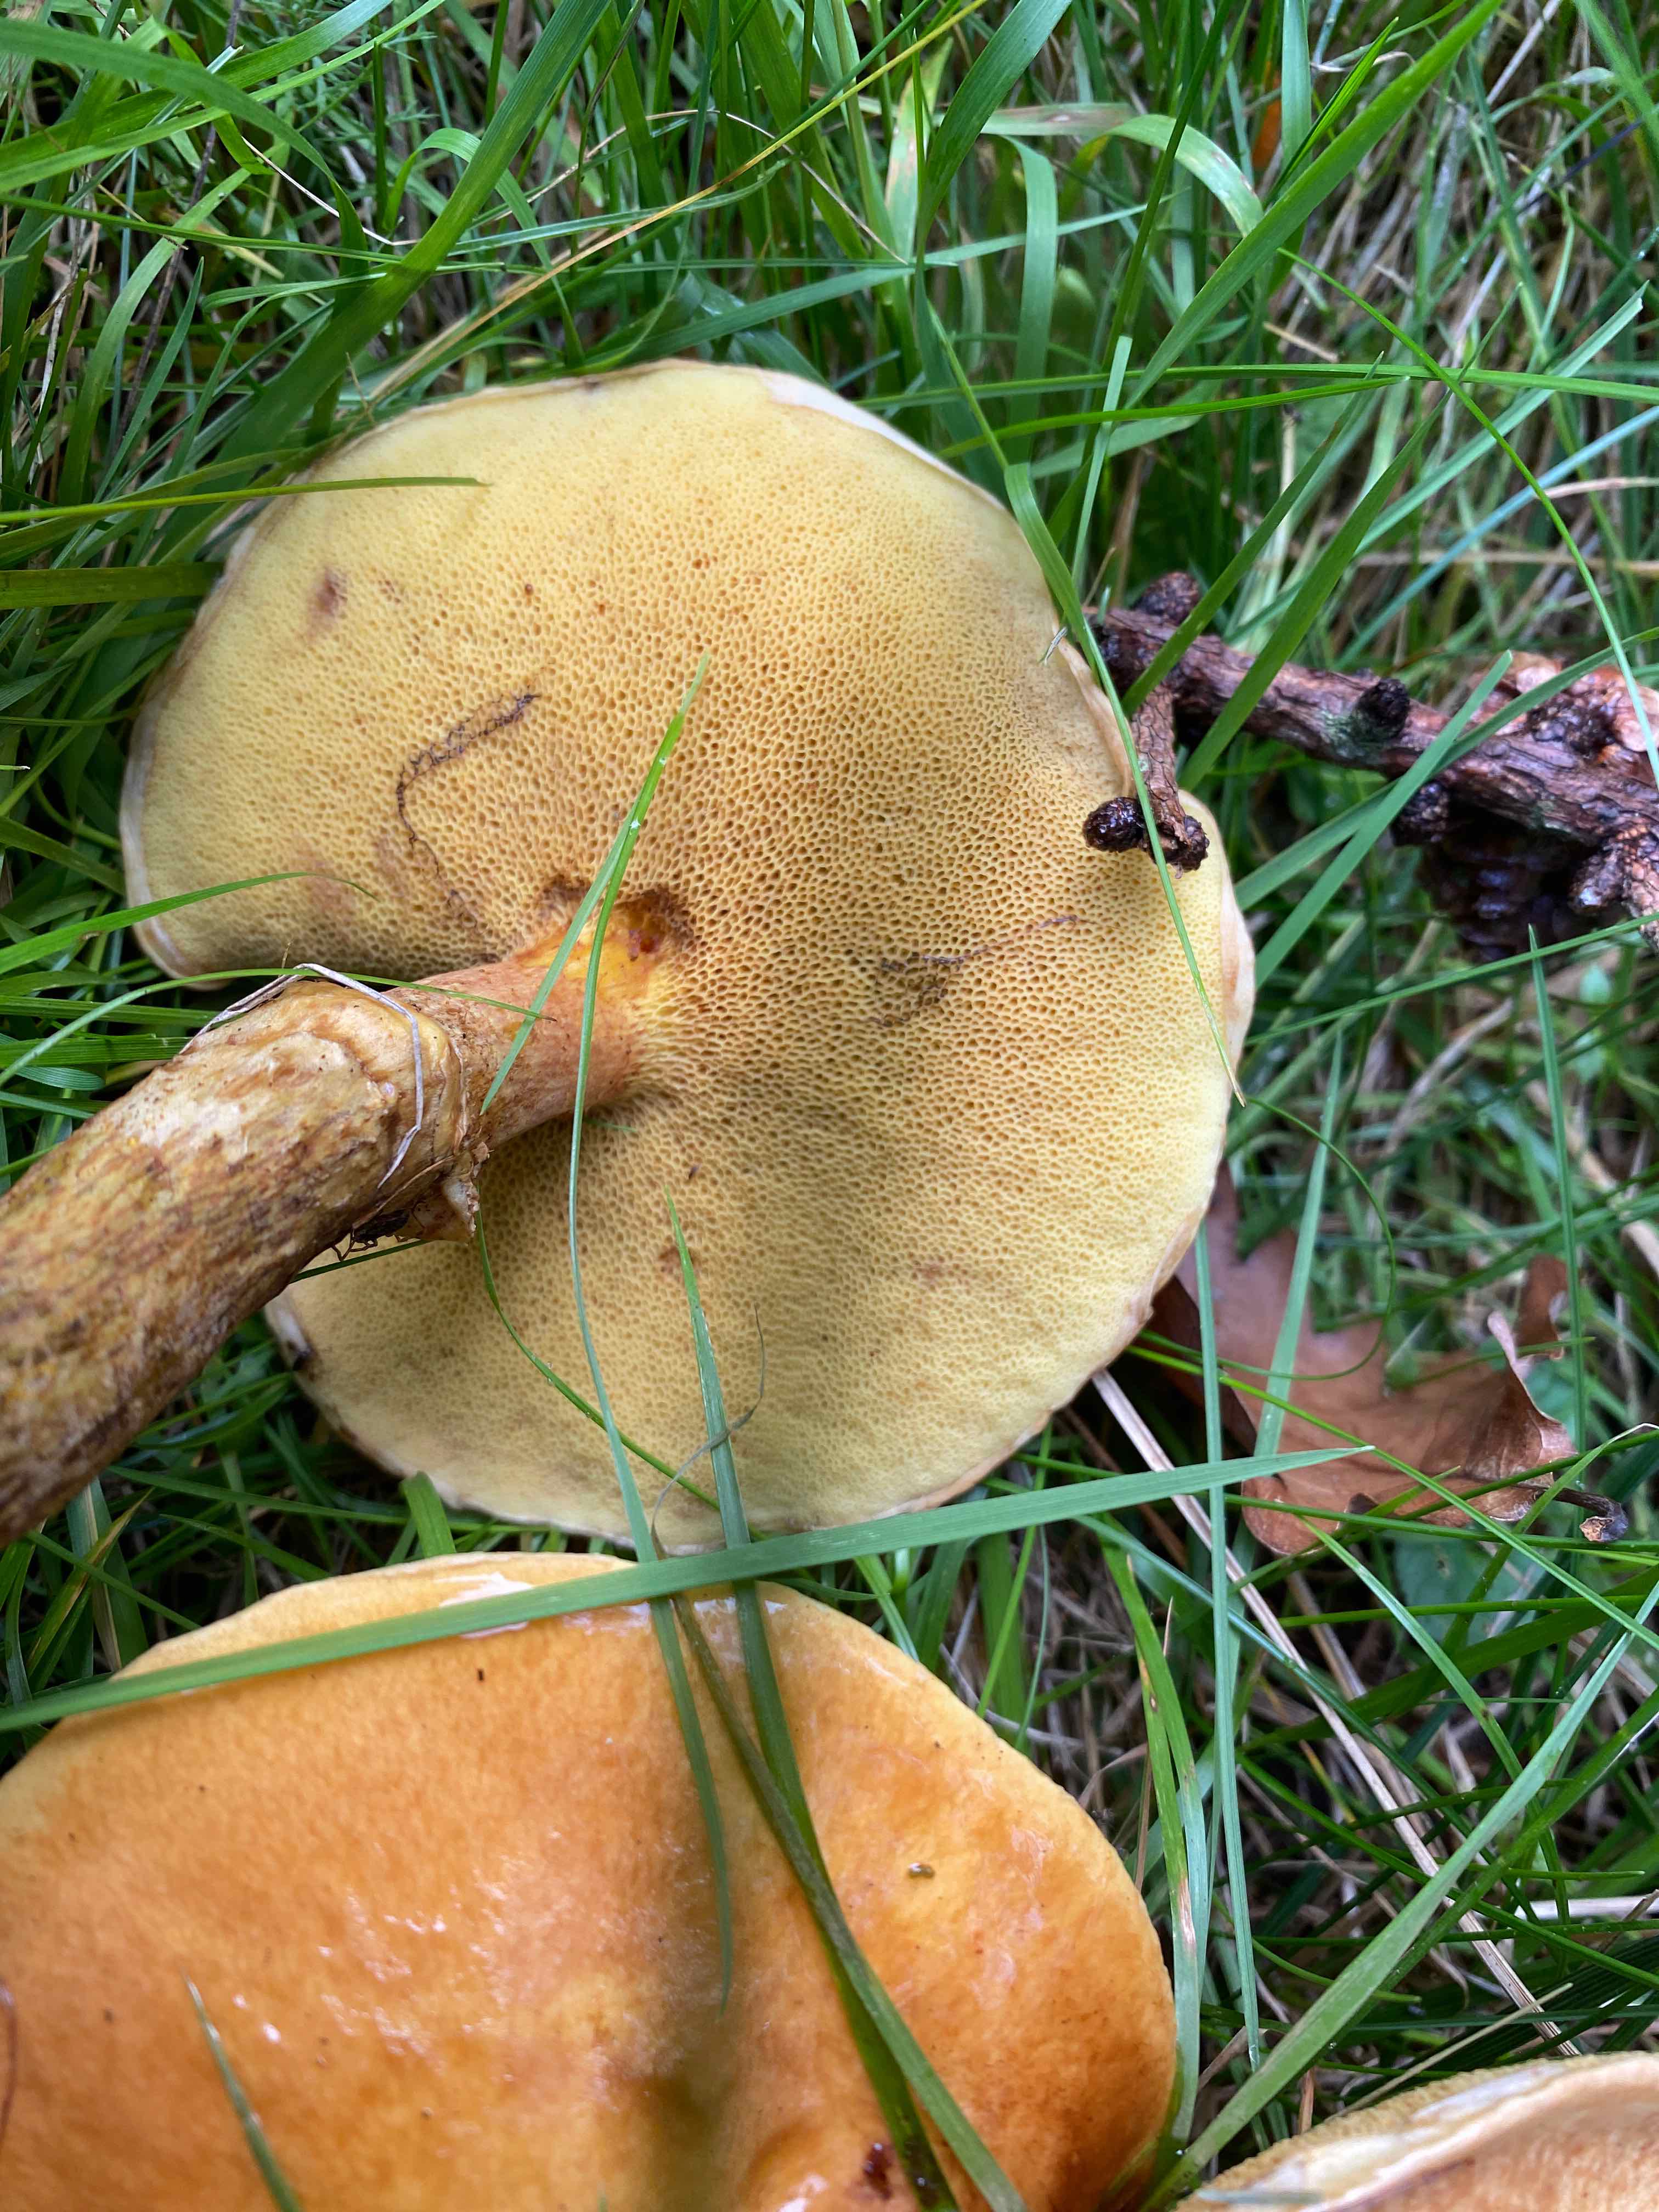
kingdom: Fungi
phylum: Basidiomycota
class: Agaricomycetes
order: Boletales
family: Suillaceae
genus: Suillus
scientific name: Suillus grevillei
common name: lærke-slimrørhat
